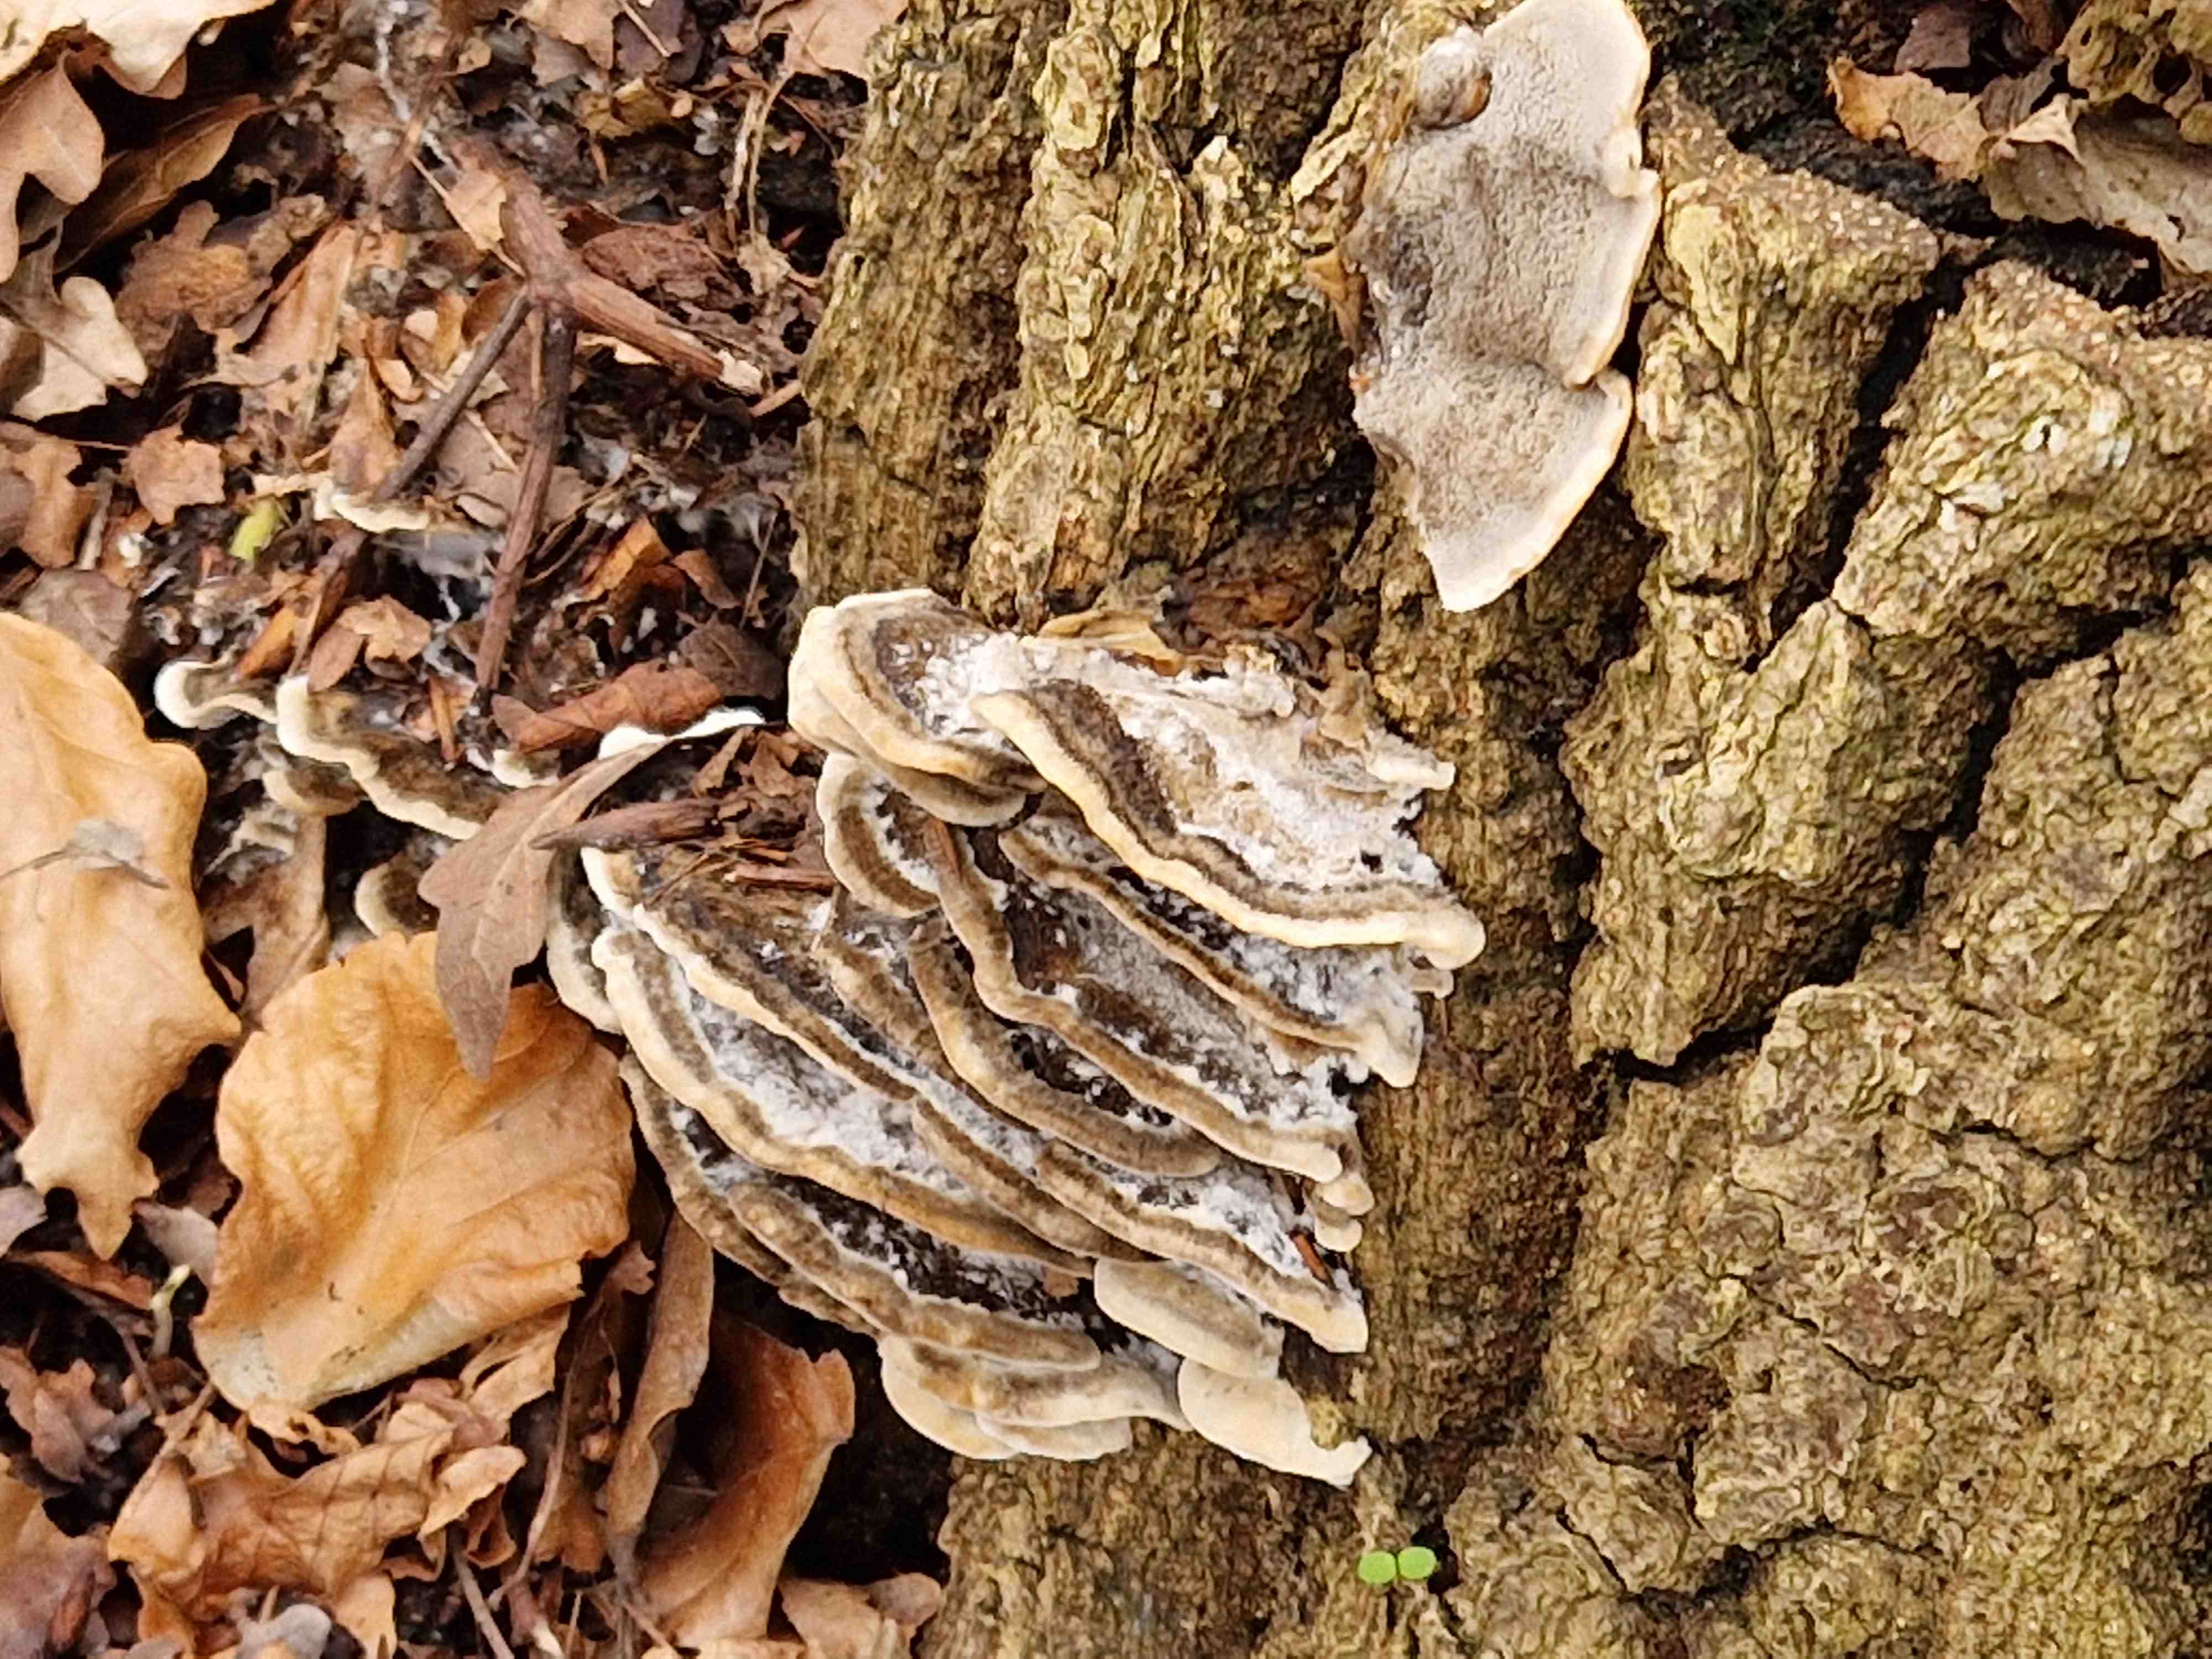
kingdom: Fungi
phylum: Basidiomycota
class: Agaricomycetes
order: Polyporales
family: Phanerochaetaceae
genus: Bjerkandera
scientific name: Bjerkandera adusta
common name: sveden sodporesvamp
